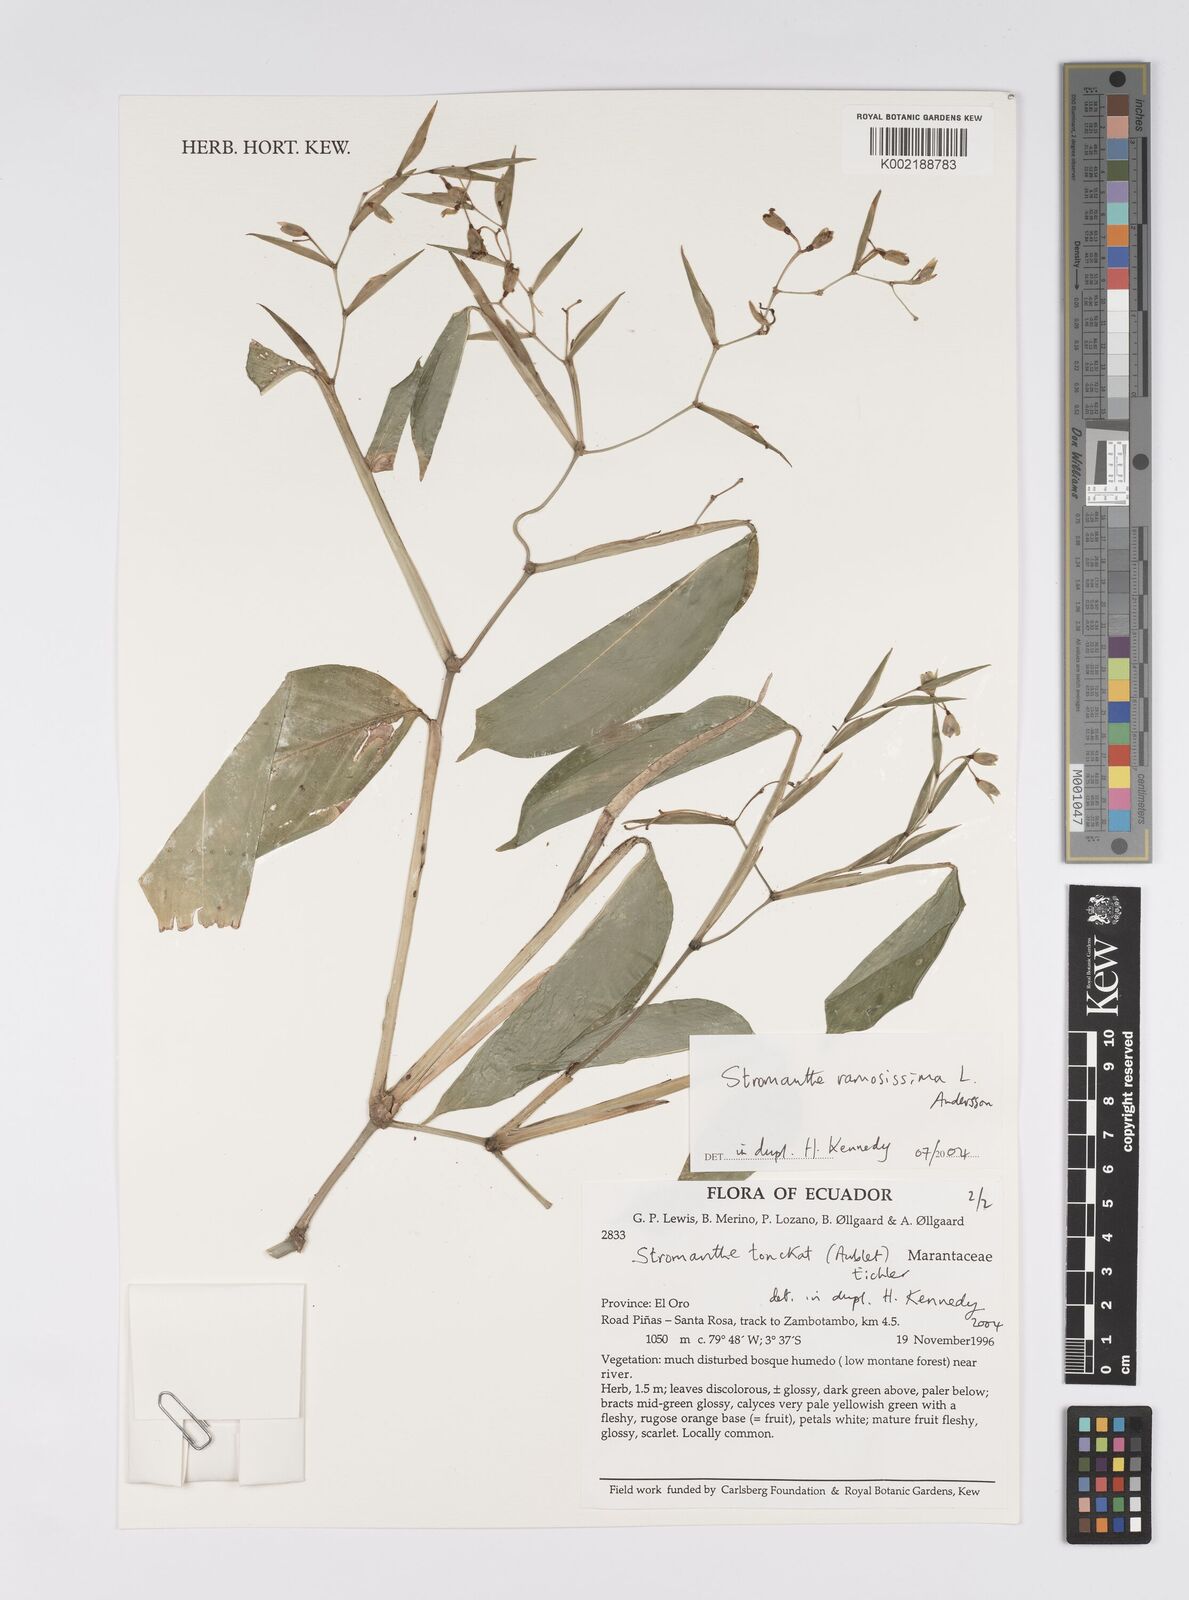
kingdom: Plantae
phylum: Tracheophyta
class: Liliopsida
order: Zingiberales
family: Marantaceae
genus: Stromanthe
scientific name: Stromanthe ramosissima
